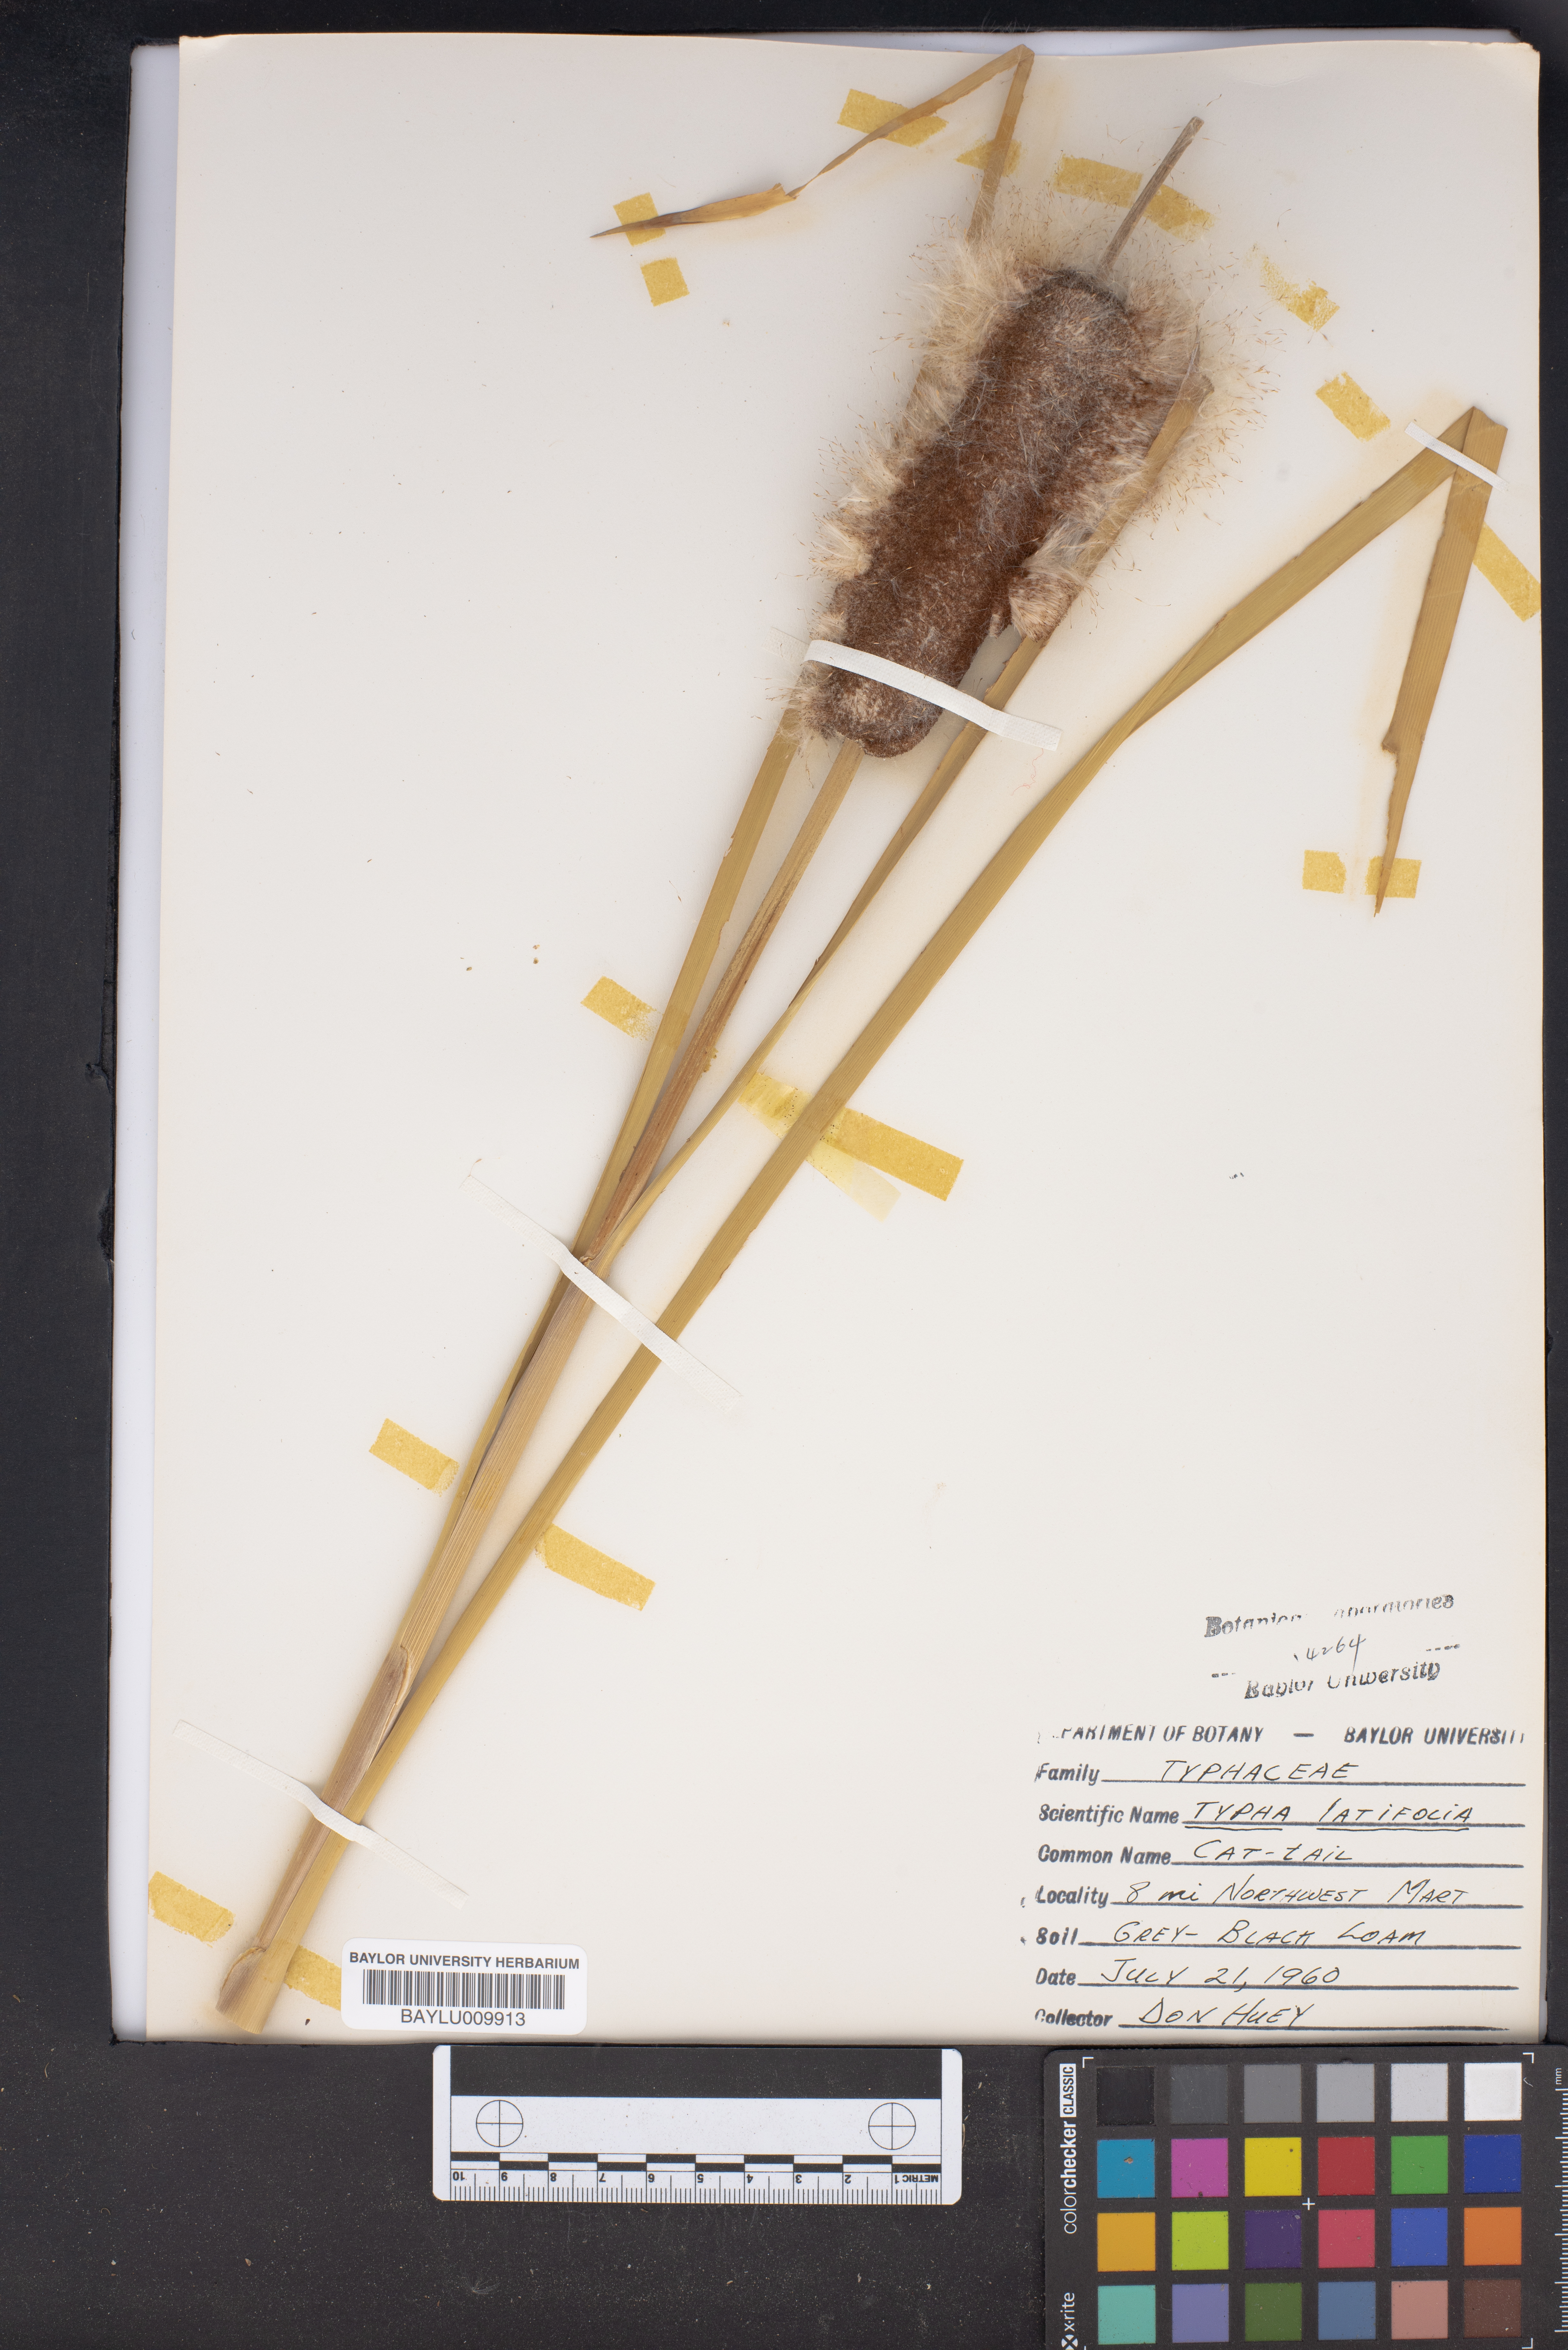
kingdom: Plantae
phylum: Tracheophyta
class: Liliopsida
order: Poales
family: Typhaceae
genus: Typha
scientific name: Typha latifolia
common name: Broadleaf cattail
